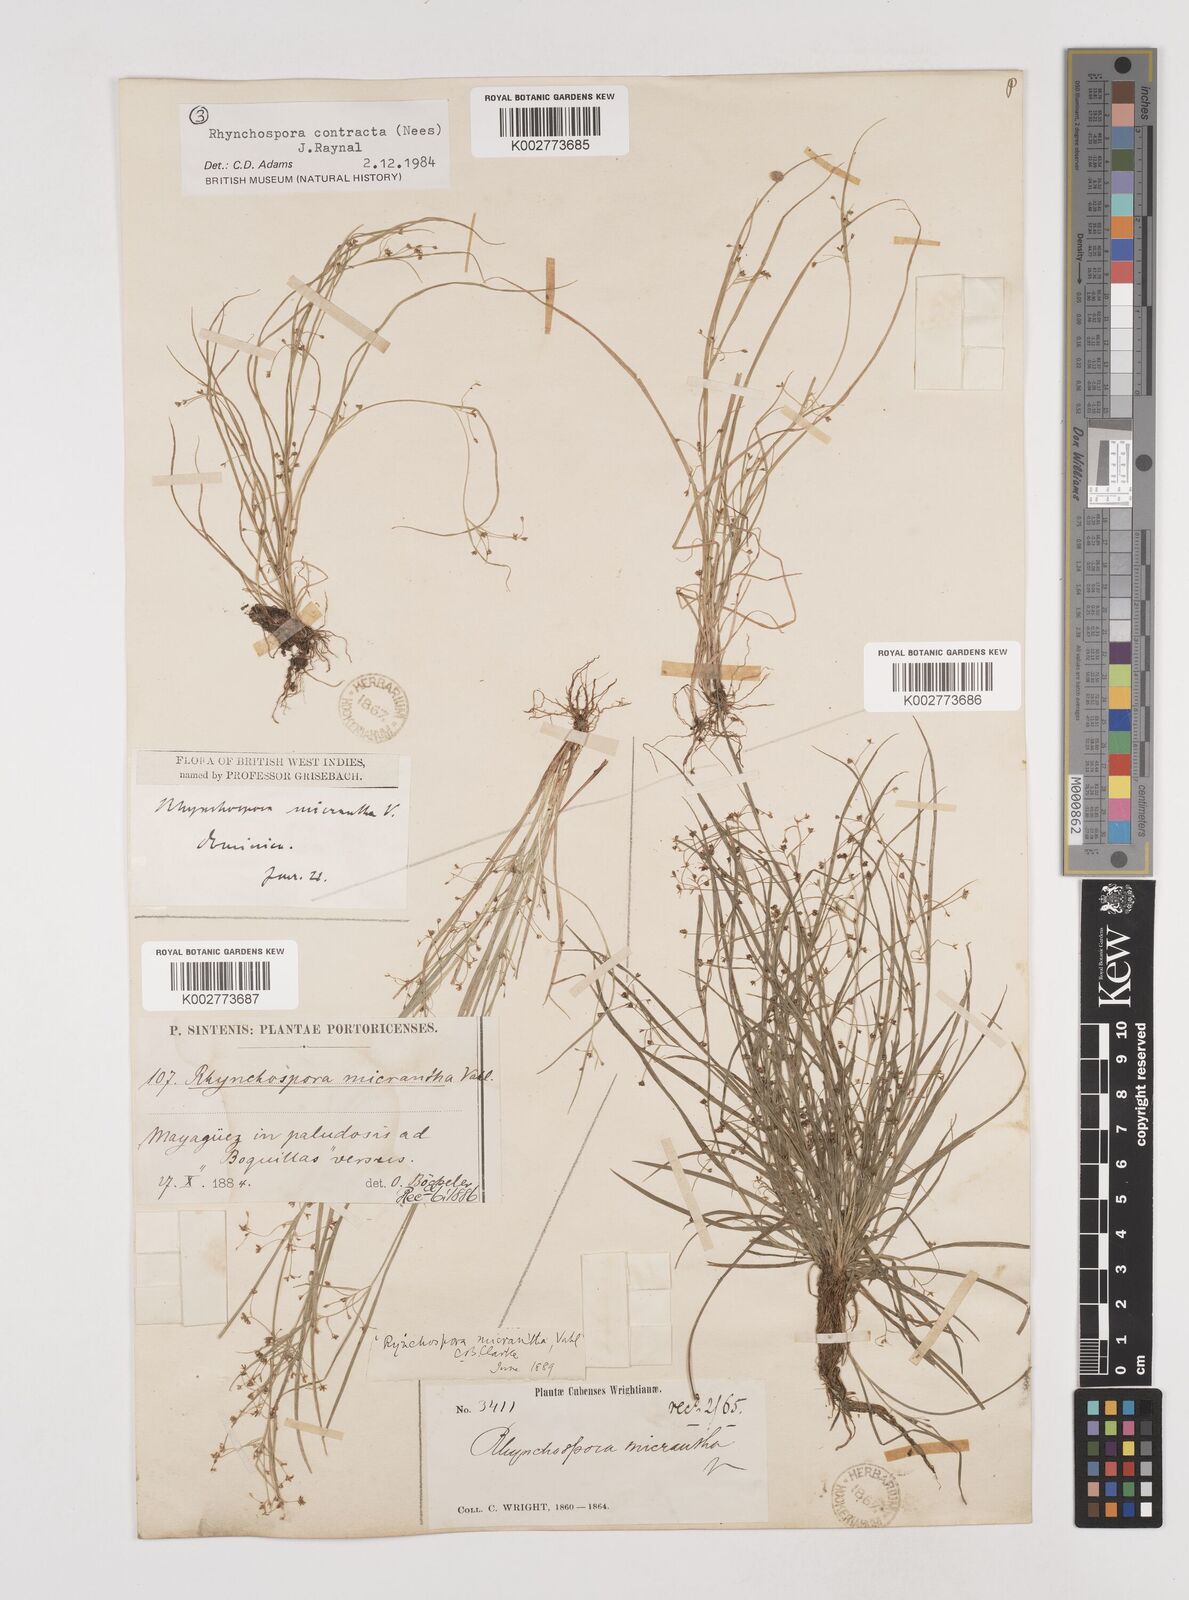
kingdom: Plantae
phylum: Tracheophyta
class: Liliopsida
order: Poales
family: Cyperaceae
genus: Rhynchospora
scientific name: Rhynchospora contracta
